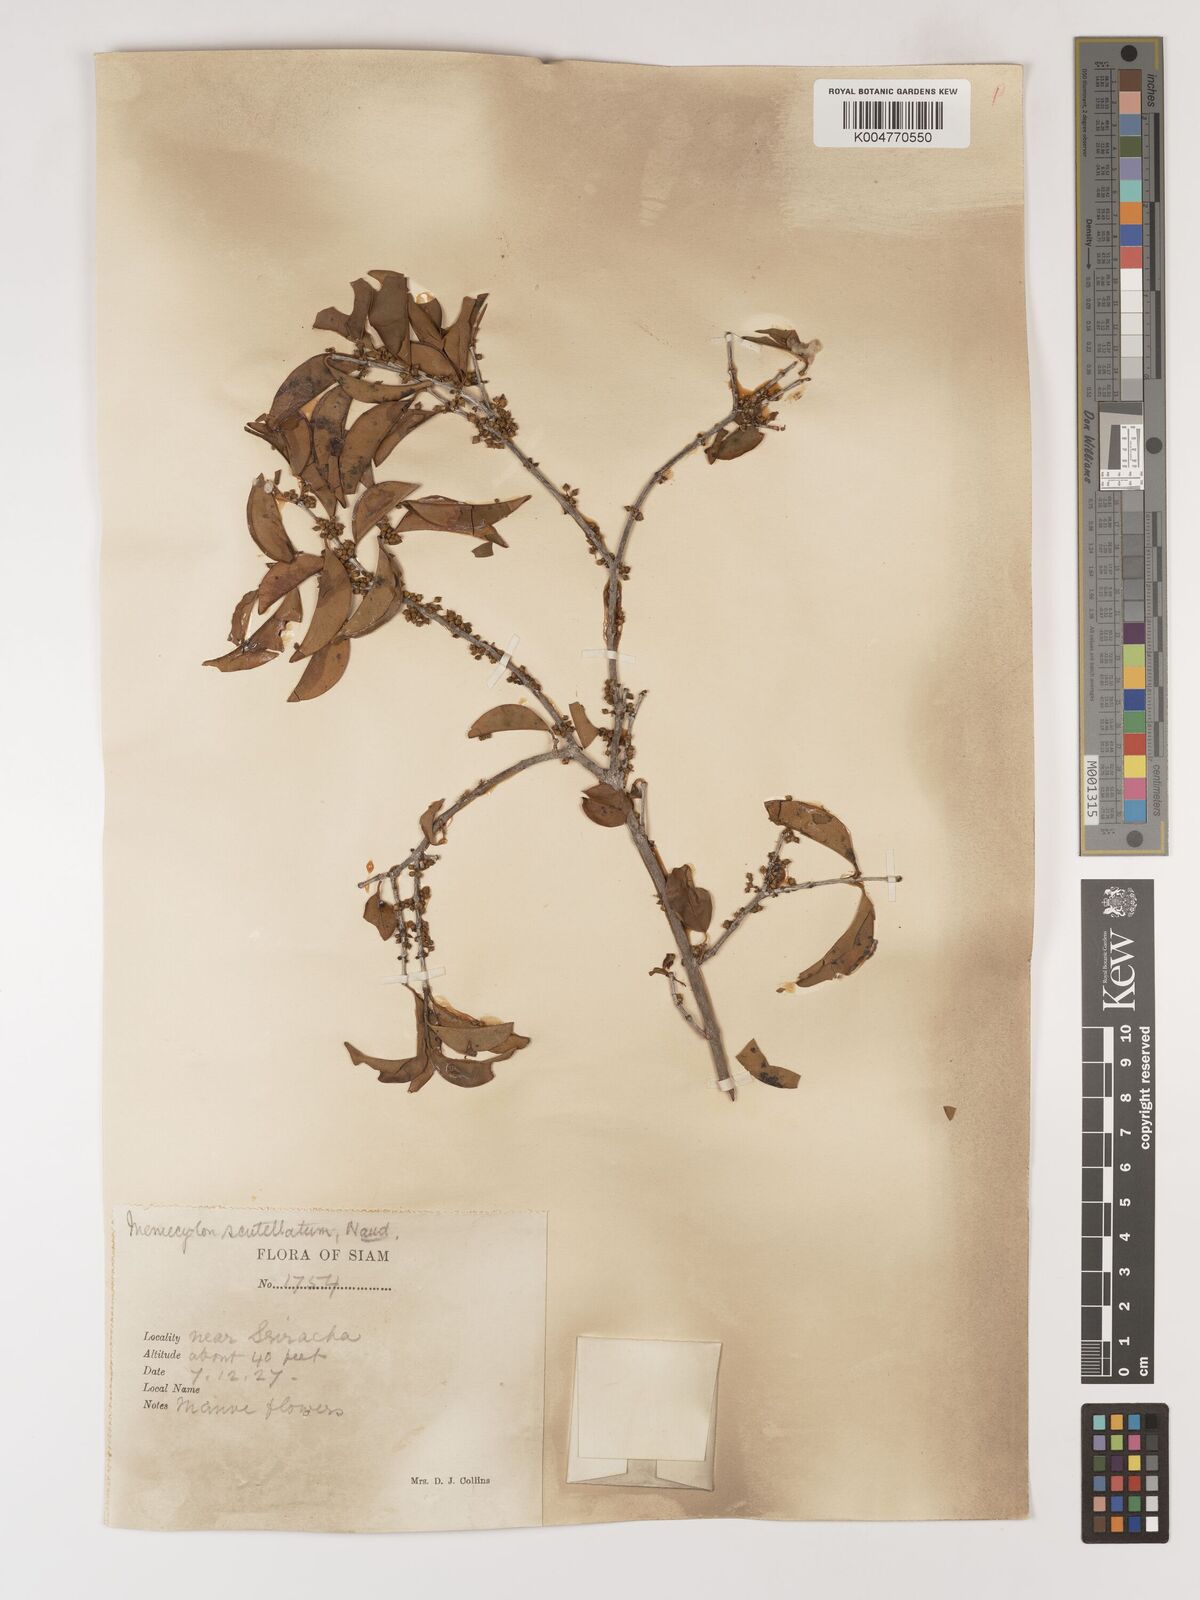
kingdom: Plantae
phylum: Tracheophyta
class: Magnoliopsida
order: Myrtales
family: Melastomataceae
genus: Memecylon
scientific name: Memecylon scutellatum
